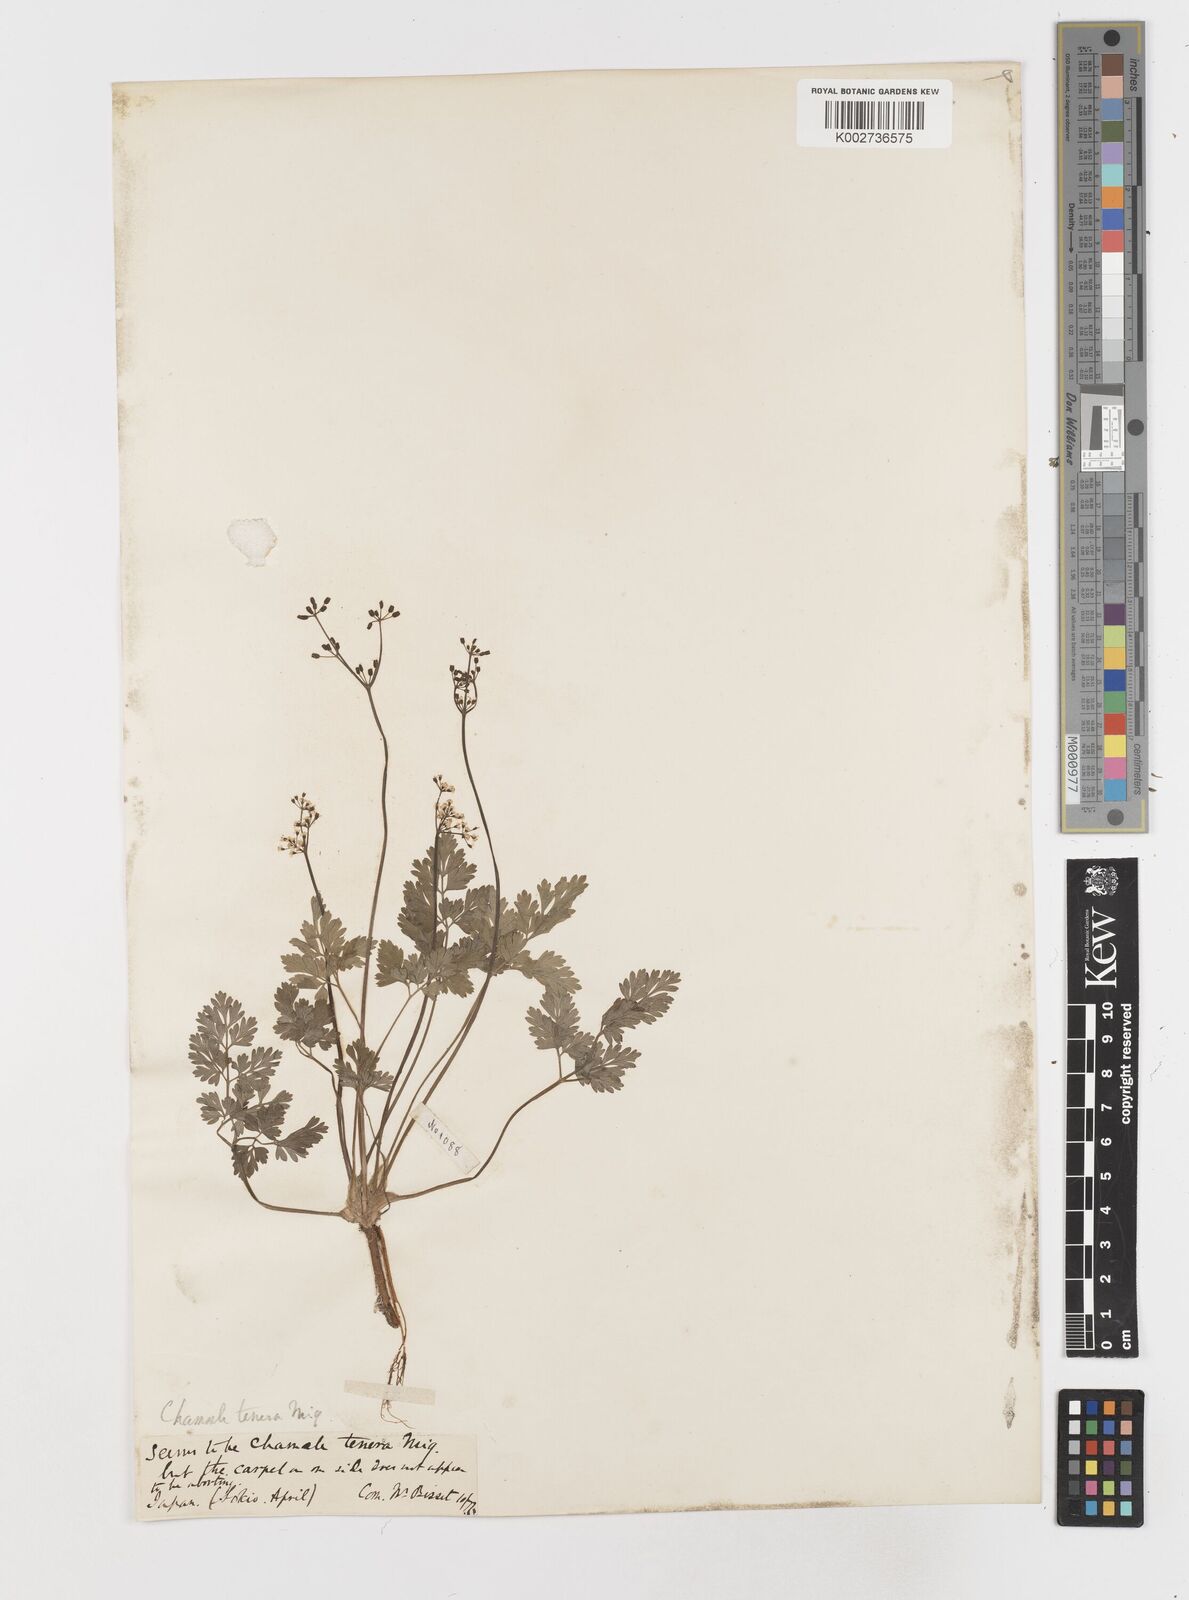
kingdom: Plantae
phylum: Tracheophyta
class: Magnoliopsida
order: Apiales
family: Apiaceae
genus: Aegopodium
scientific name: Aegopodium decumbens
